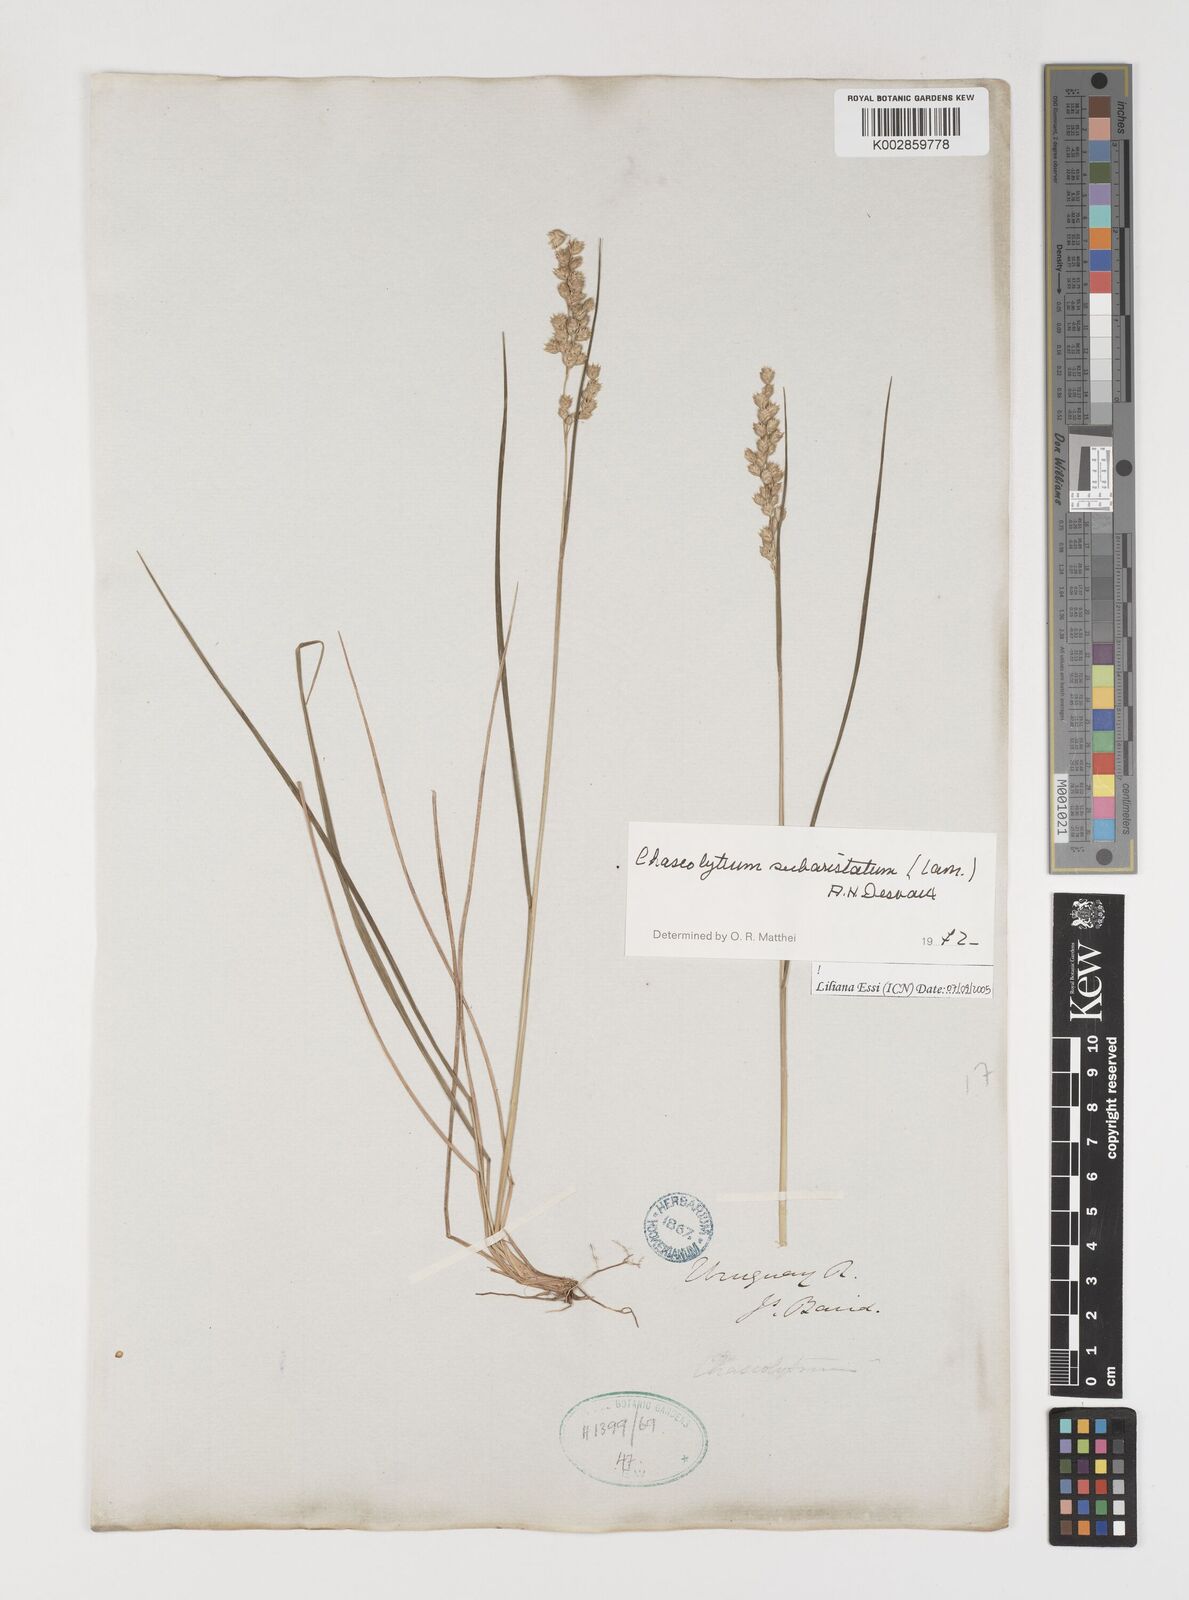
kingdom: Plantae
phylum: Tracheophyta
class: Liliopsida
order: Poales
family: Poaceae
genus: Chascolytrum
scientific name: Chascolytrum subaristatum
